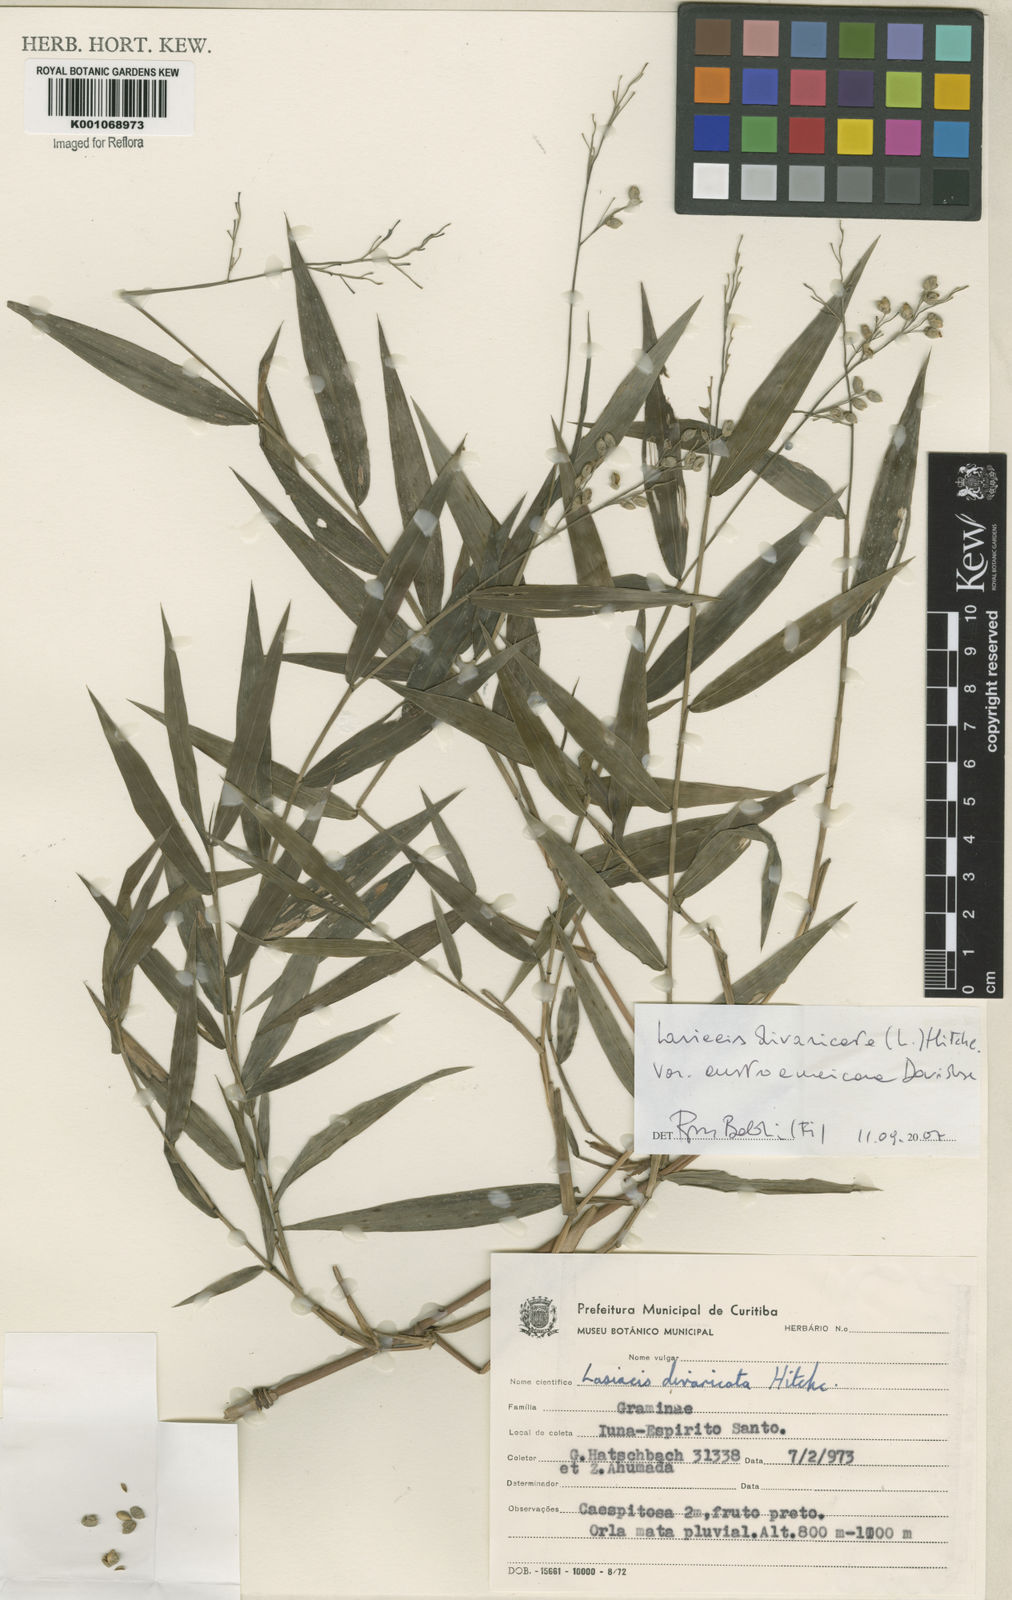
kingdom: Plantae
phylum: Tracheophyta
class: Liliopsida
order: Poales
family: Poaceae
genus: Lasiacis
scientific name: Lasiacis divaricata
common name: Smallcane
